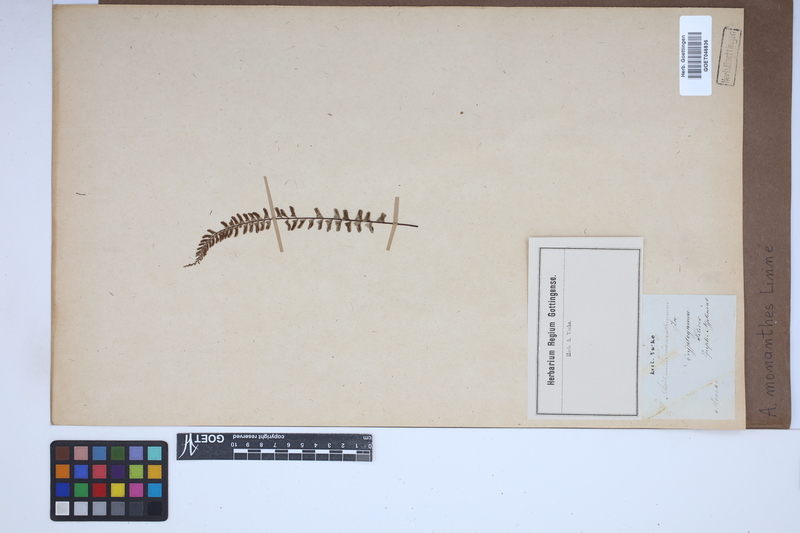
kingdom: Plantae
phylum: Tracheophyta
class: Polypodiopsida
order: Polypodiales
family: Aspleniaceae
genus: Asplenium
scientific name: Asplenium monanthes
